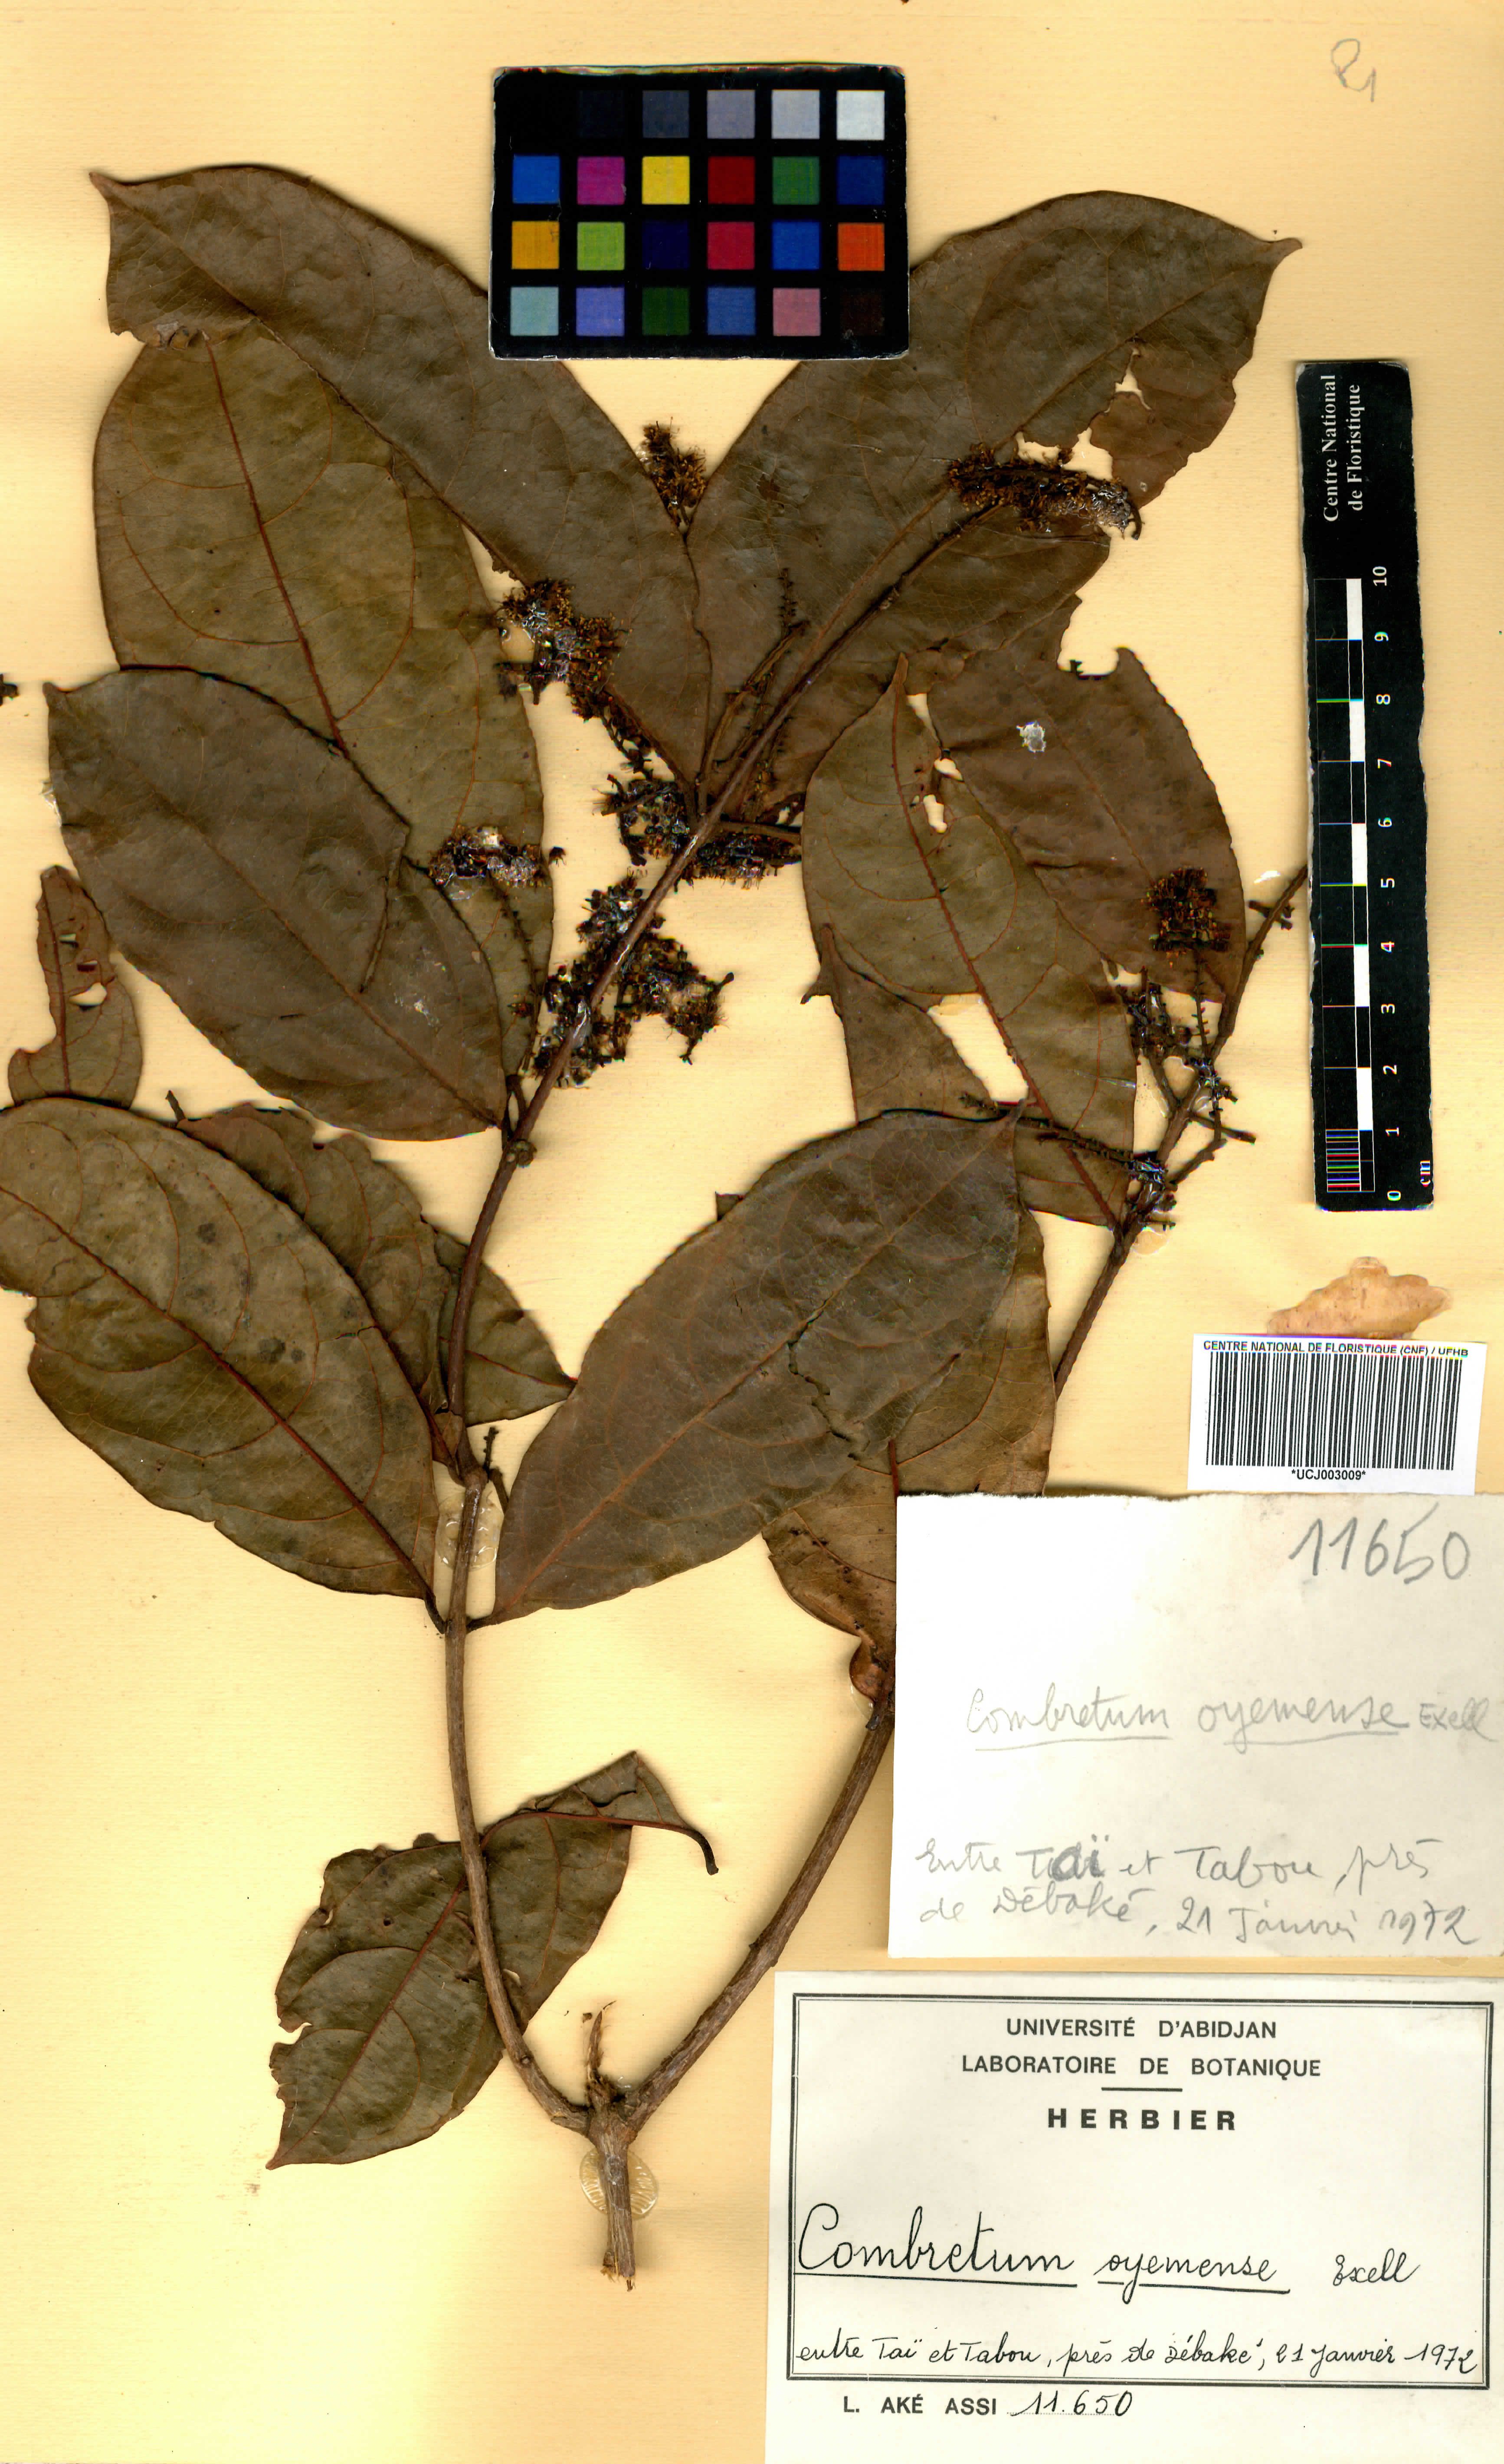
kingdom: Plantae
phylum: Tracheophyta
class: Magnoliopsida
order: Myrtales
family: Combretaceae
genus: Combretum
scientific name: Combretum oyemense
